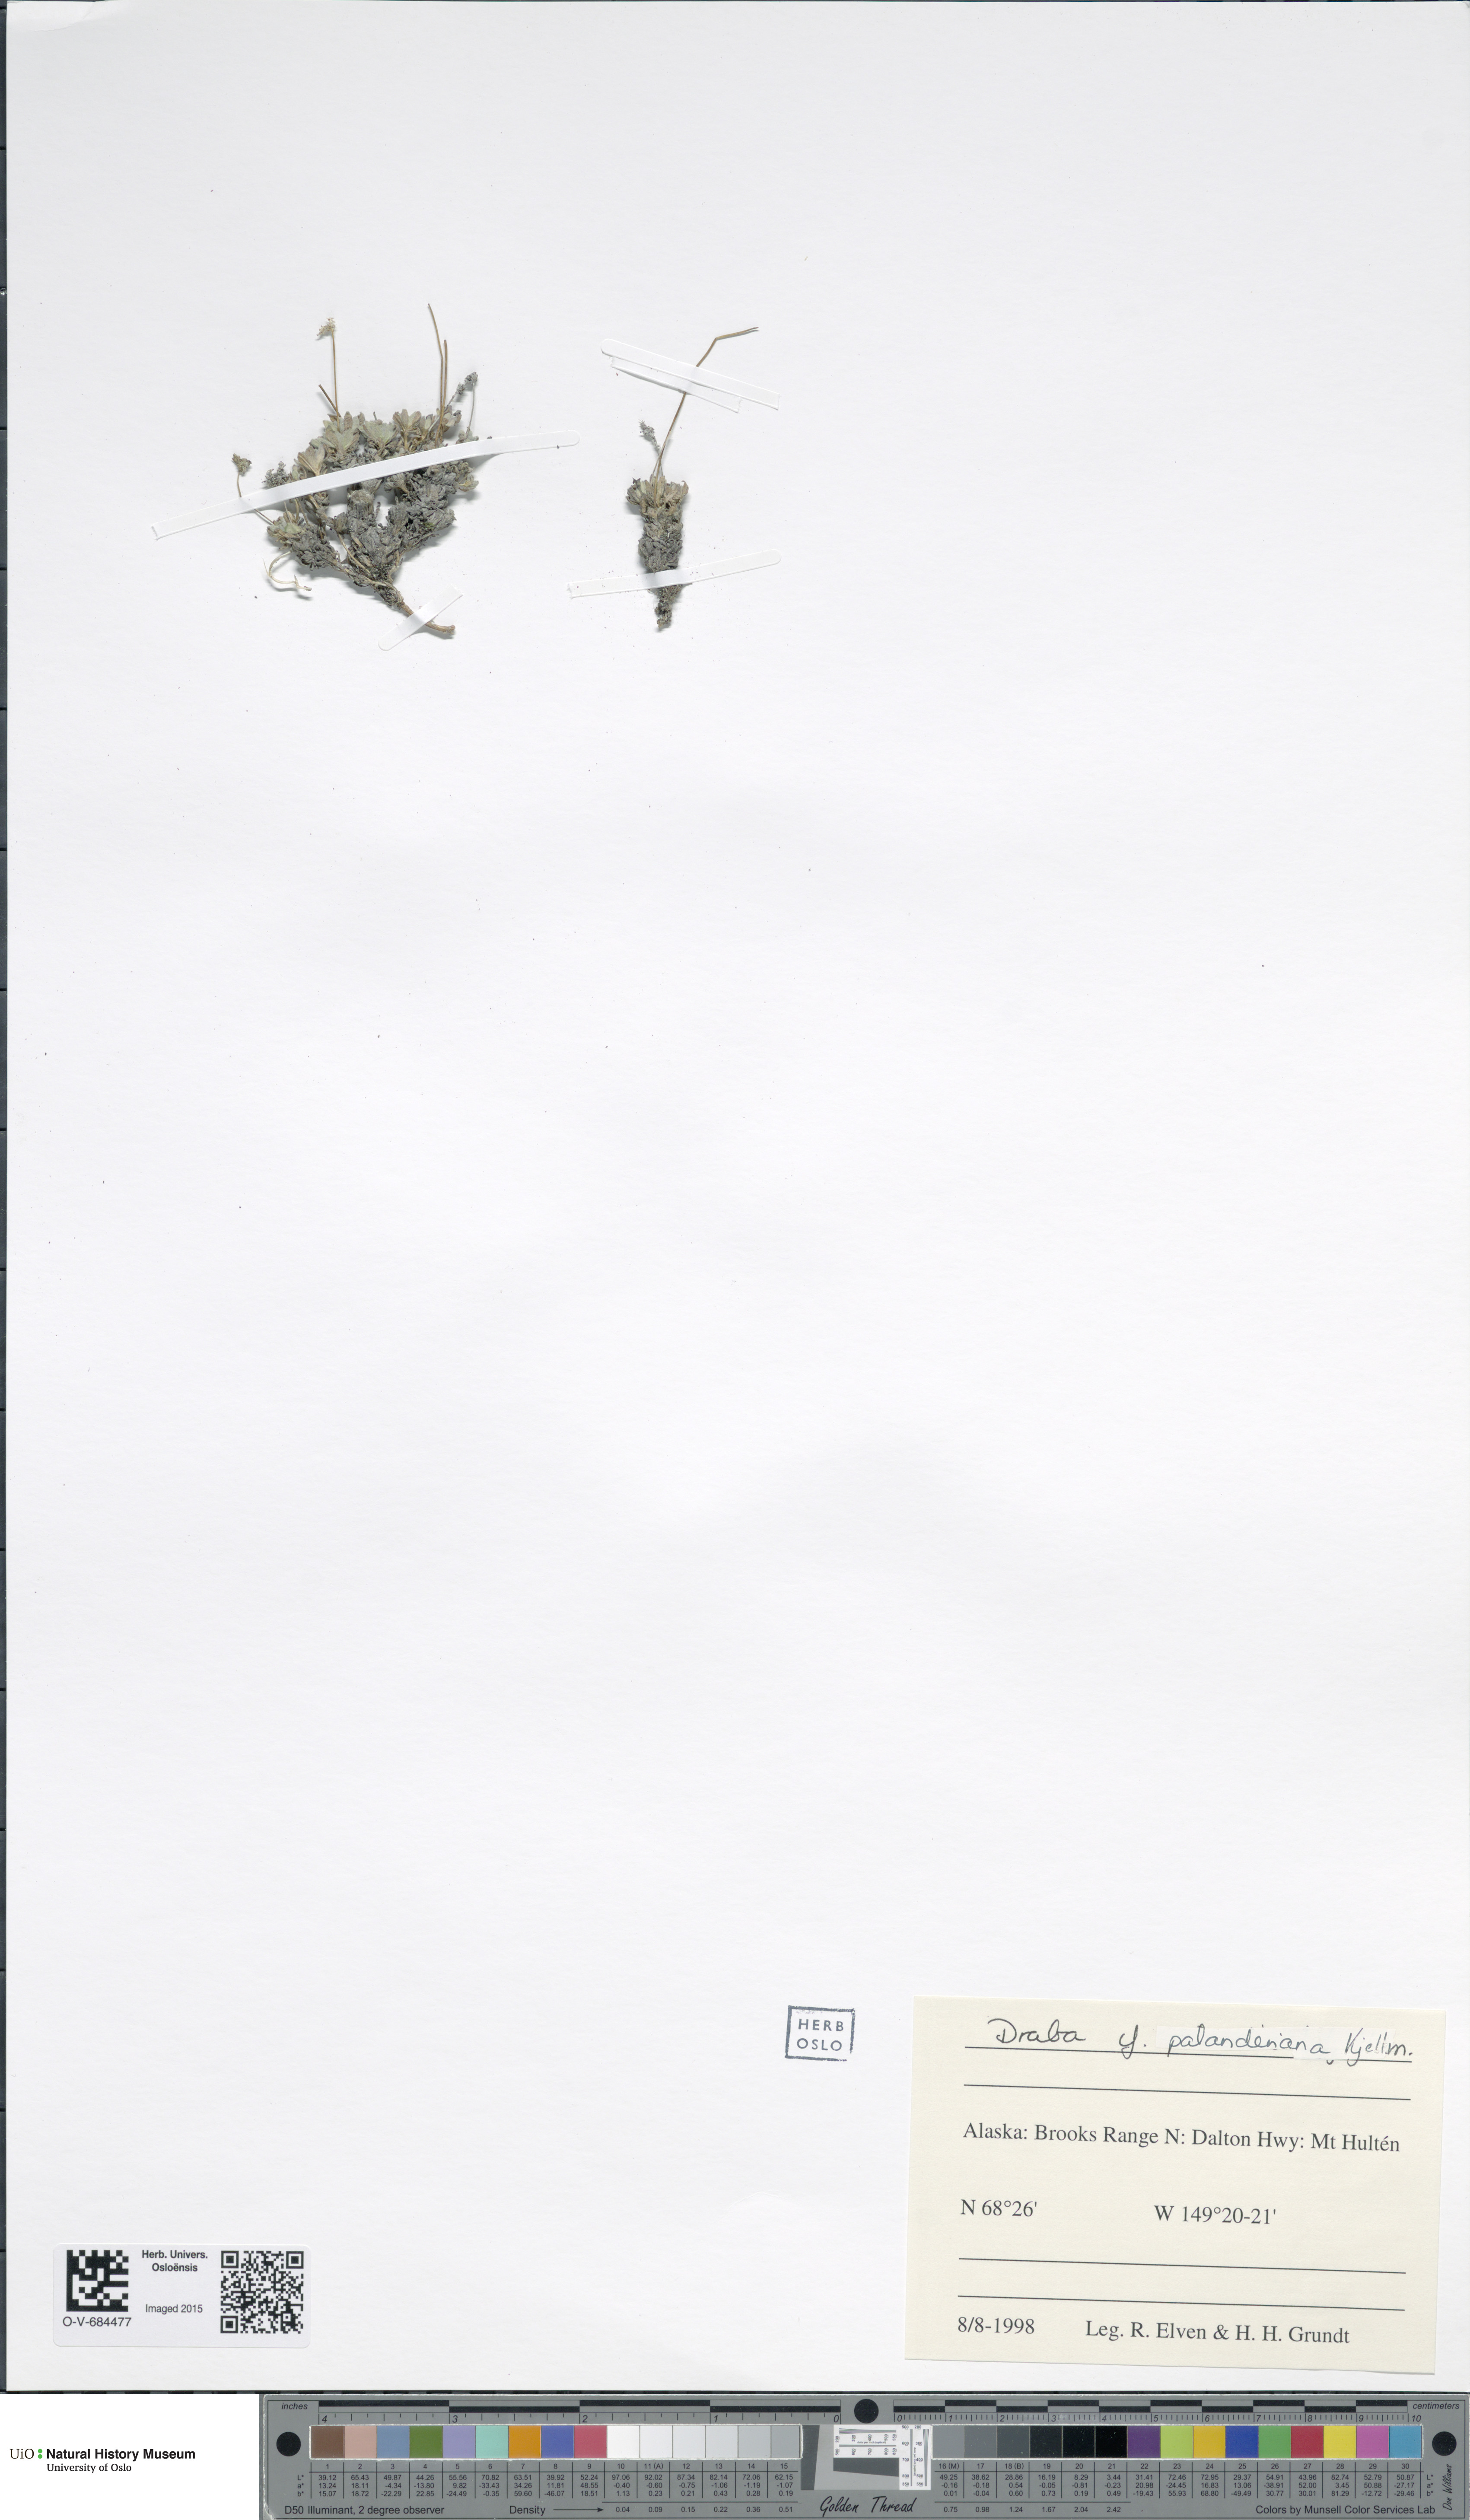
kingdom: Plantae
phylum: Tracheophyta
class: Magnoliopsida
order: Brassicales
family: Brassicaceae
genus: Draba
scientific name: Draba palanderiana
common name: Palander's draba
